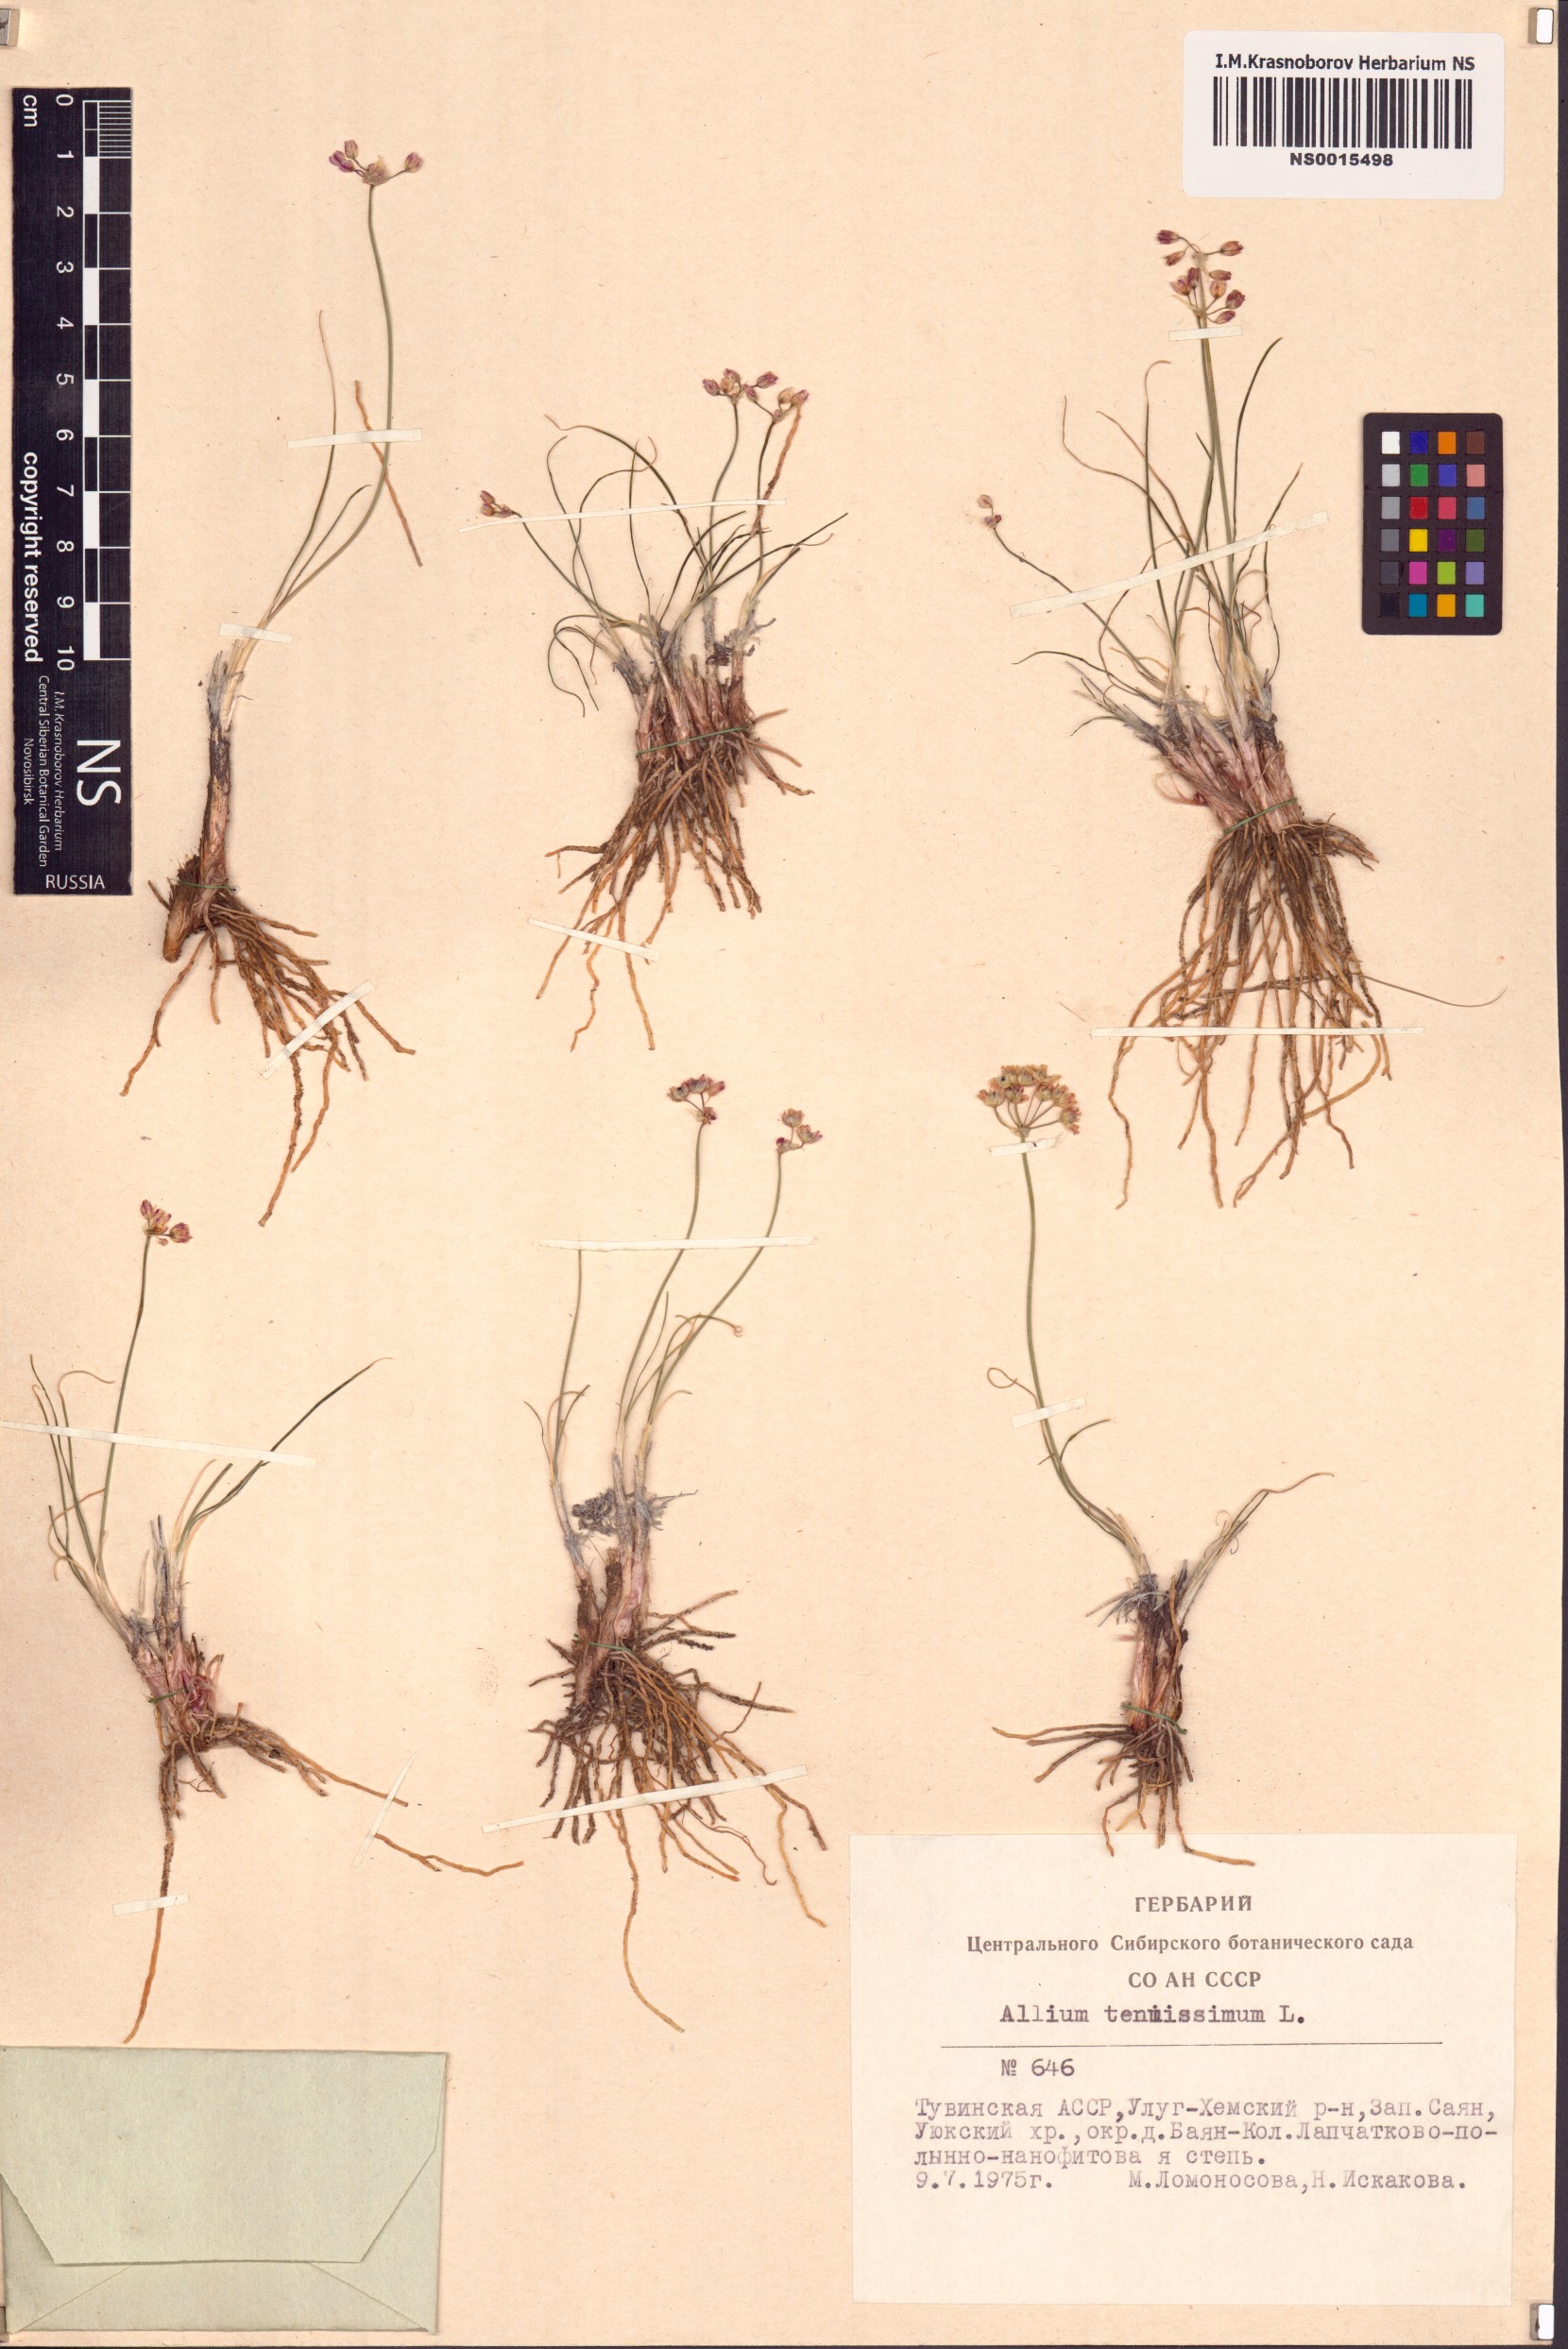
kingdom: Plantae
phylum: Tracheophyta
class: Liliopsida
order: Asparagales
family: Amaryllidaceae
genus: Allium
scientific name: Allium tenuissimum
